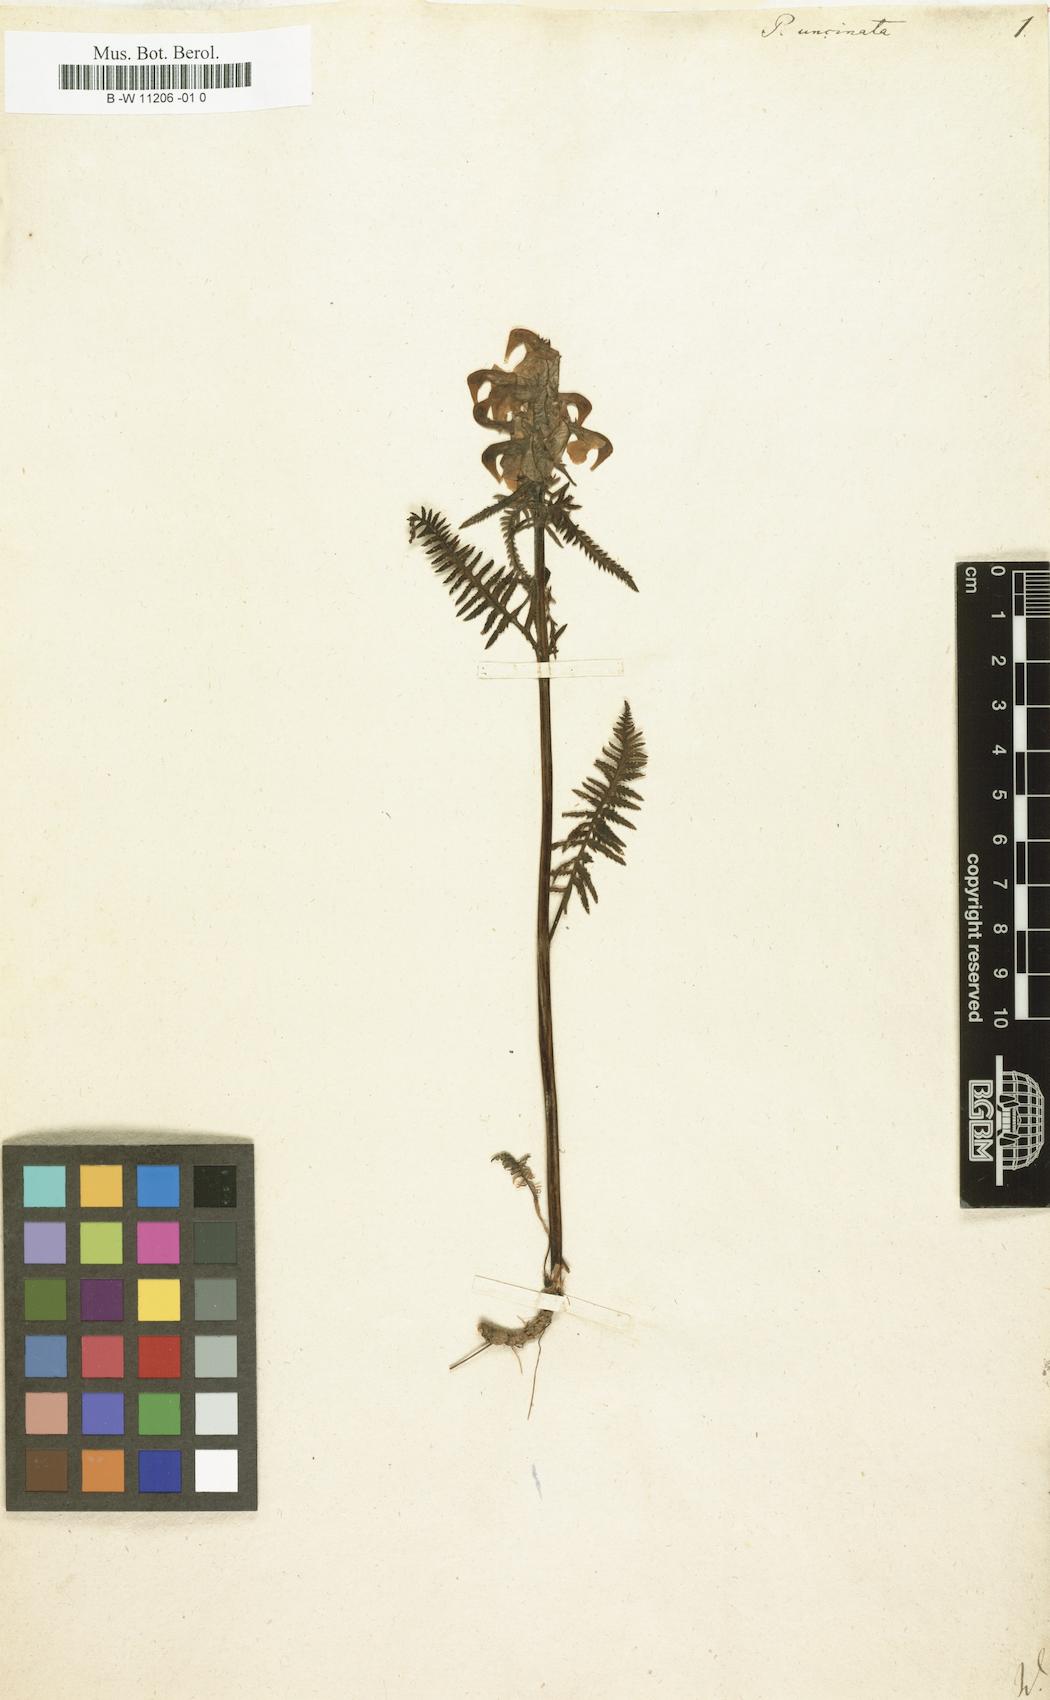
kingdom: Plantae
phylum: Tracheophyta
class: Magnoliopsida
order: Lamiales
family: Orobanchaceae
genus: Pedicularis
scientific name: Pedicularis
